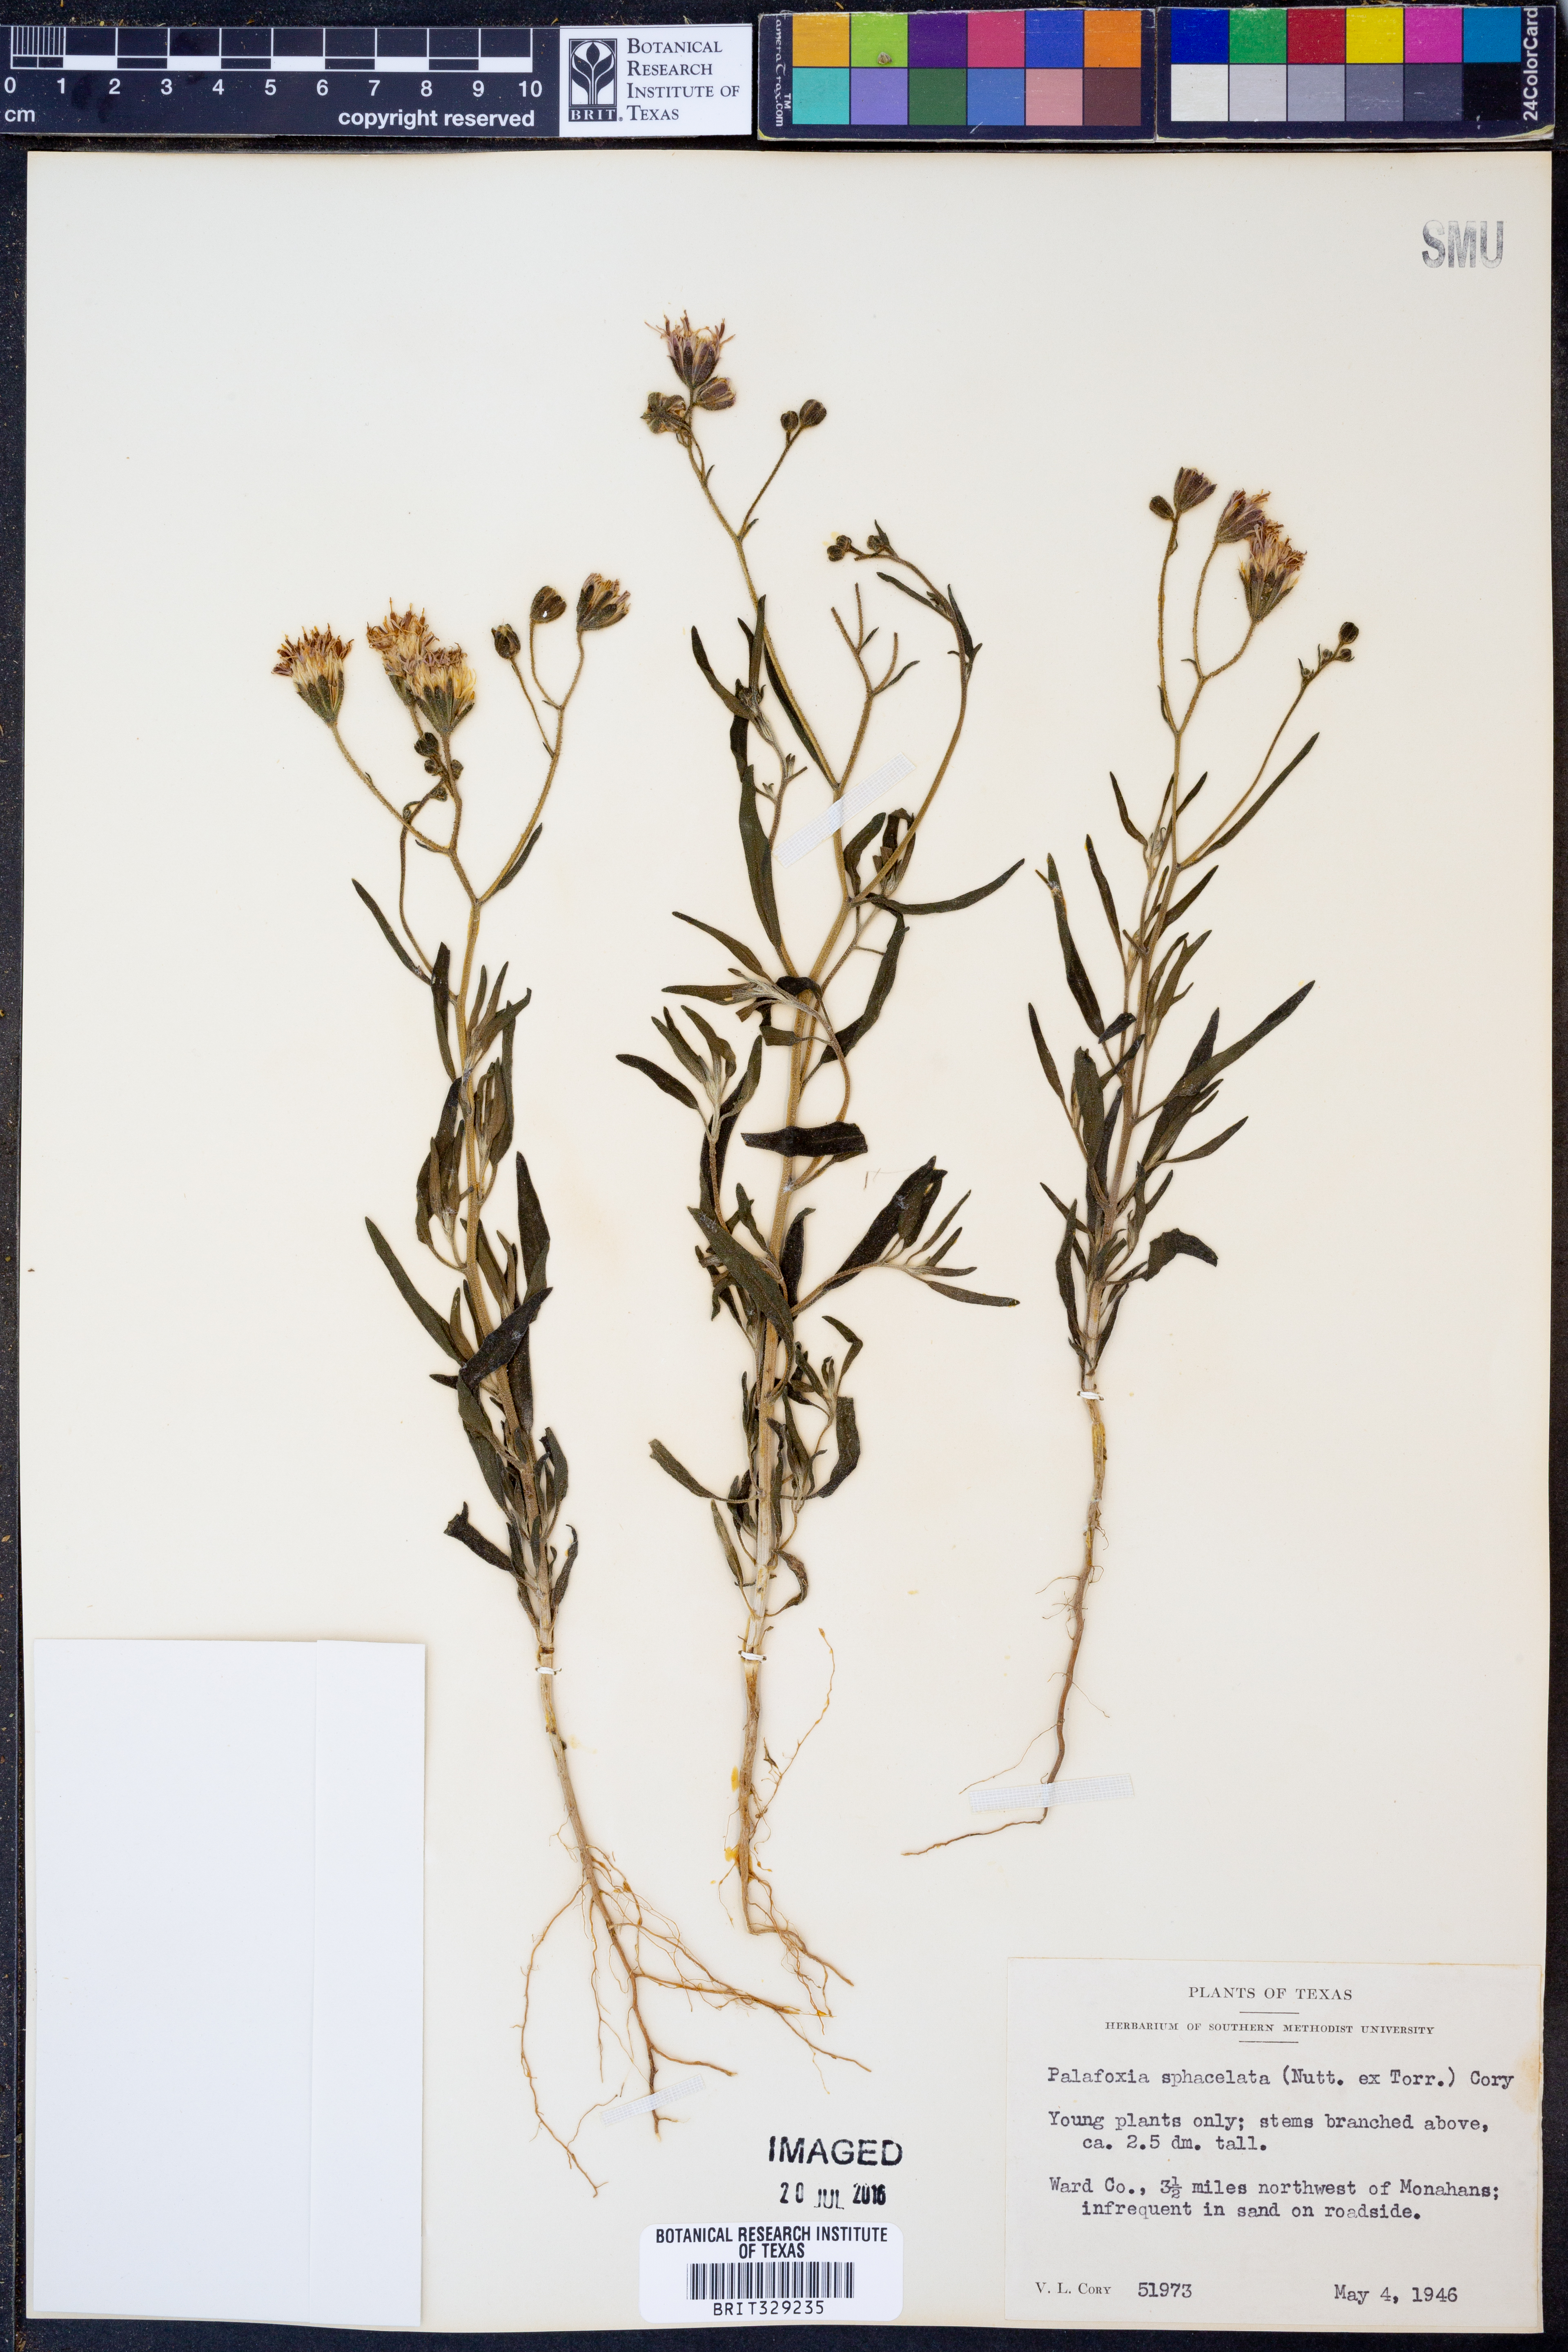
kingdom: Plantae
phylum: Tracheophyta
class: Magnoliopsida
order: Asterales
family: Asteraceae
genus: Palafoxia
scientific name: Palafoxia sphacelata
